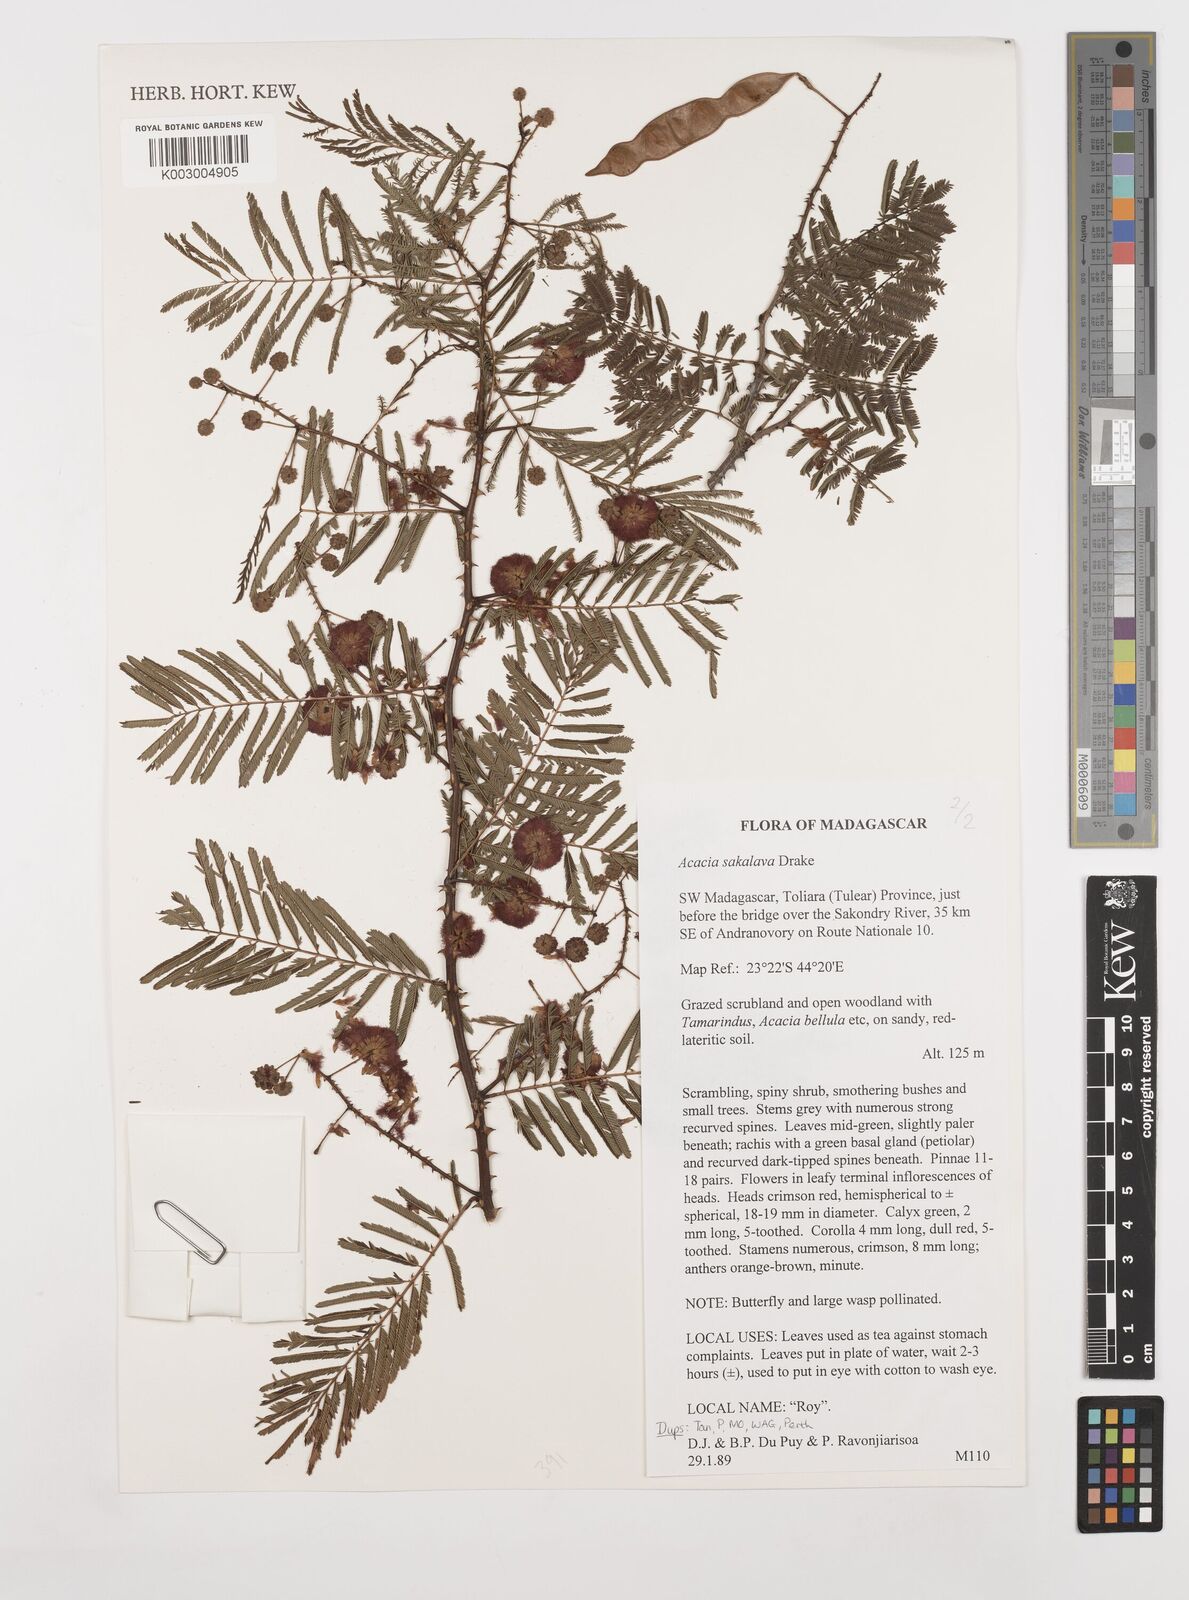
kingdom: Plantae
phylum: Tracheophyta
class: Magnoliopsida
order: Fabales
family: Fabaceae
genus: Senegalia
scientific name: Senegalia sakalava
